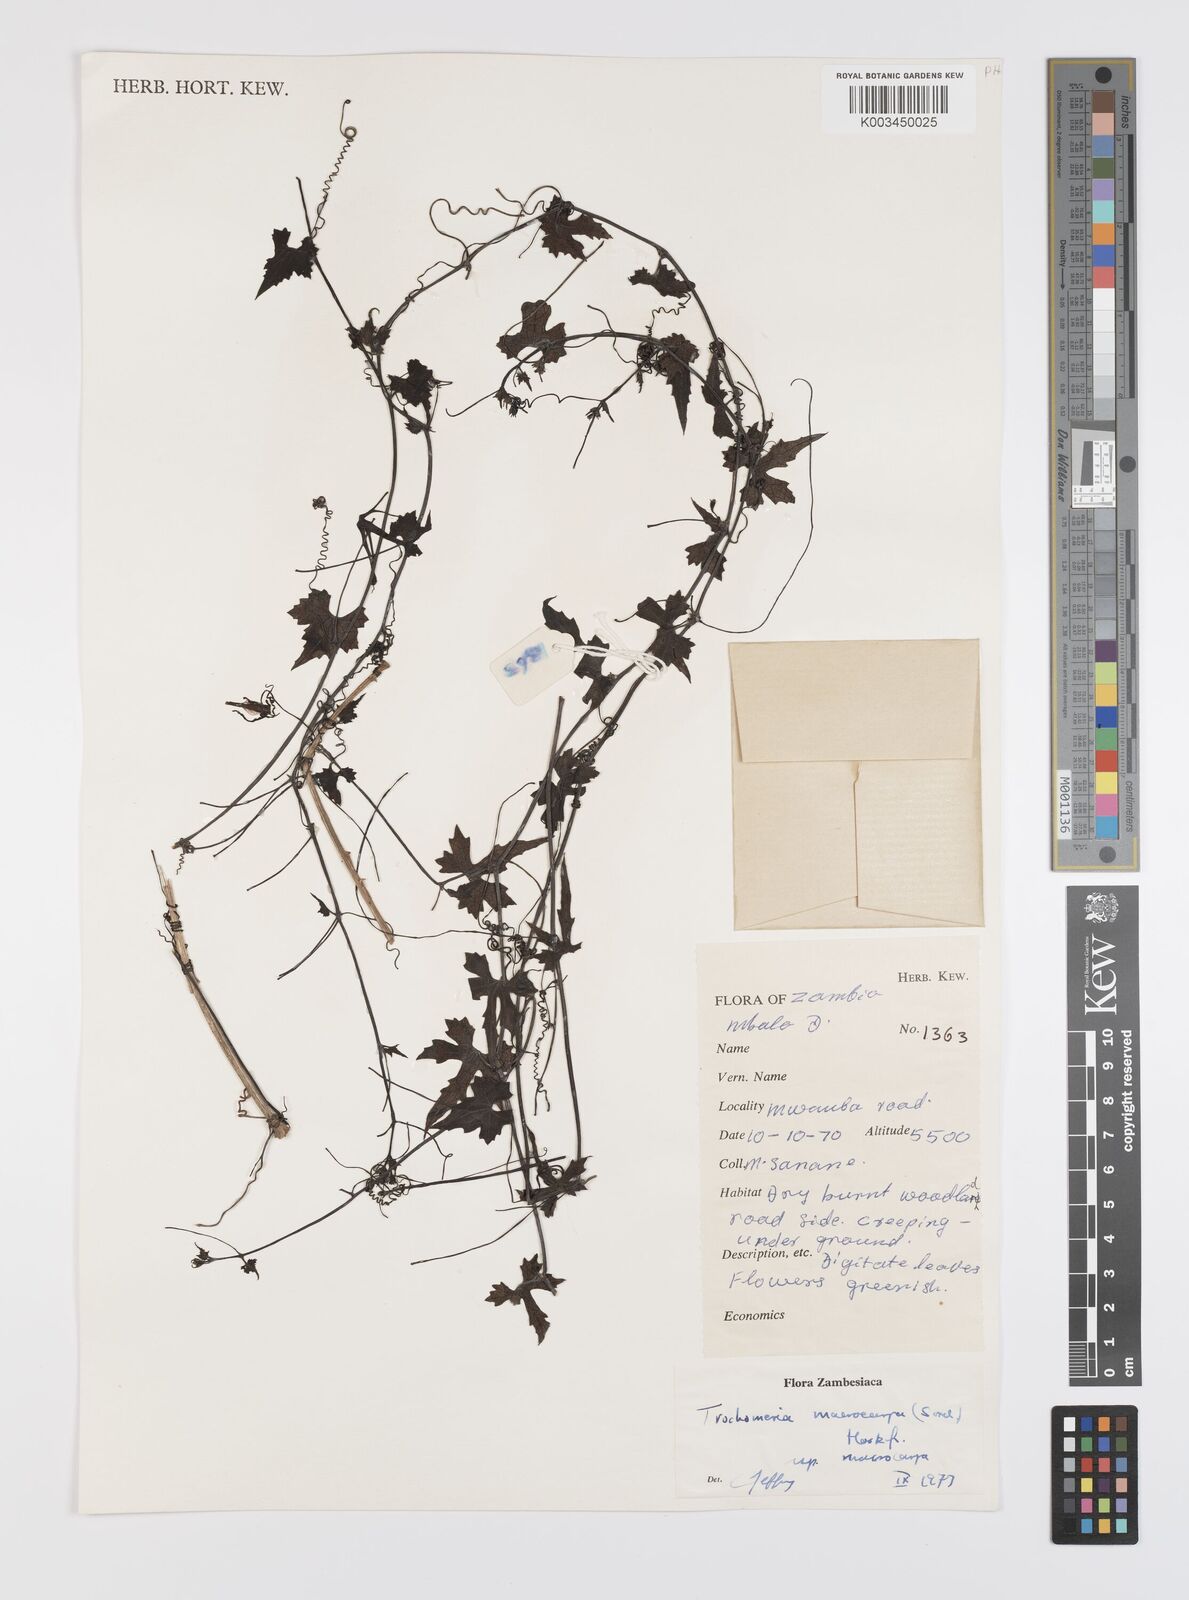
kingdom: Plantae
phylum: Tracheophyta
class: Magnoliopsida
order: Cucurbitales
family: Cucurbitaceae
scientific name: Cucurbitaceae
